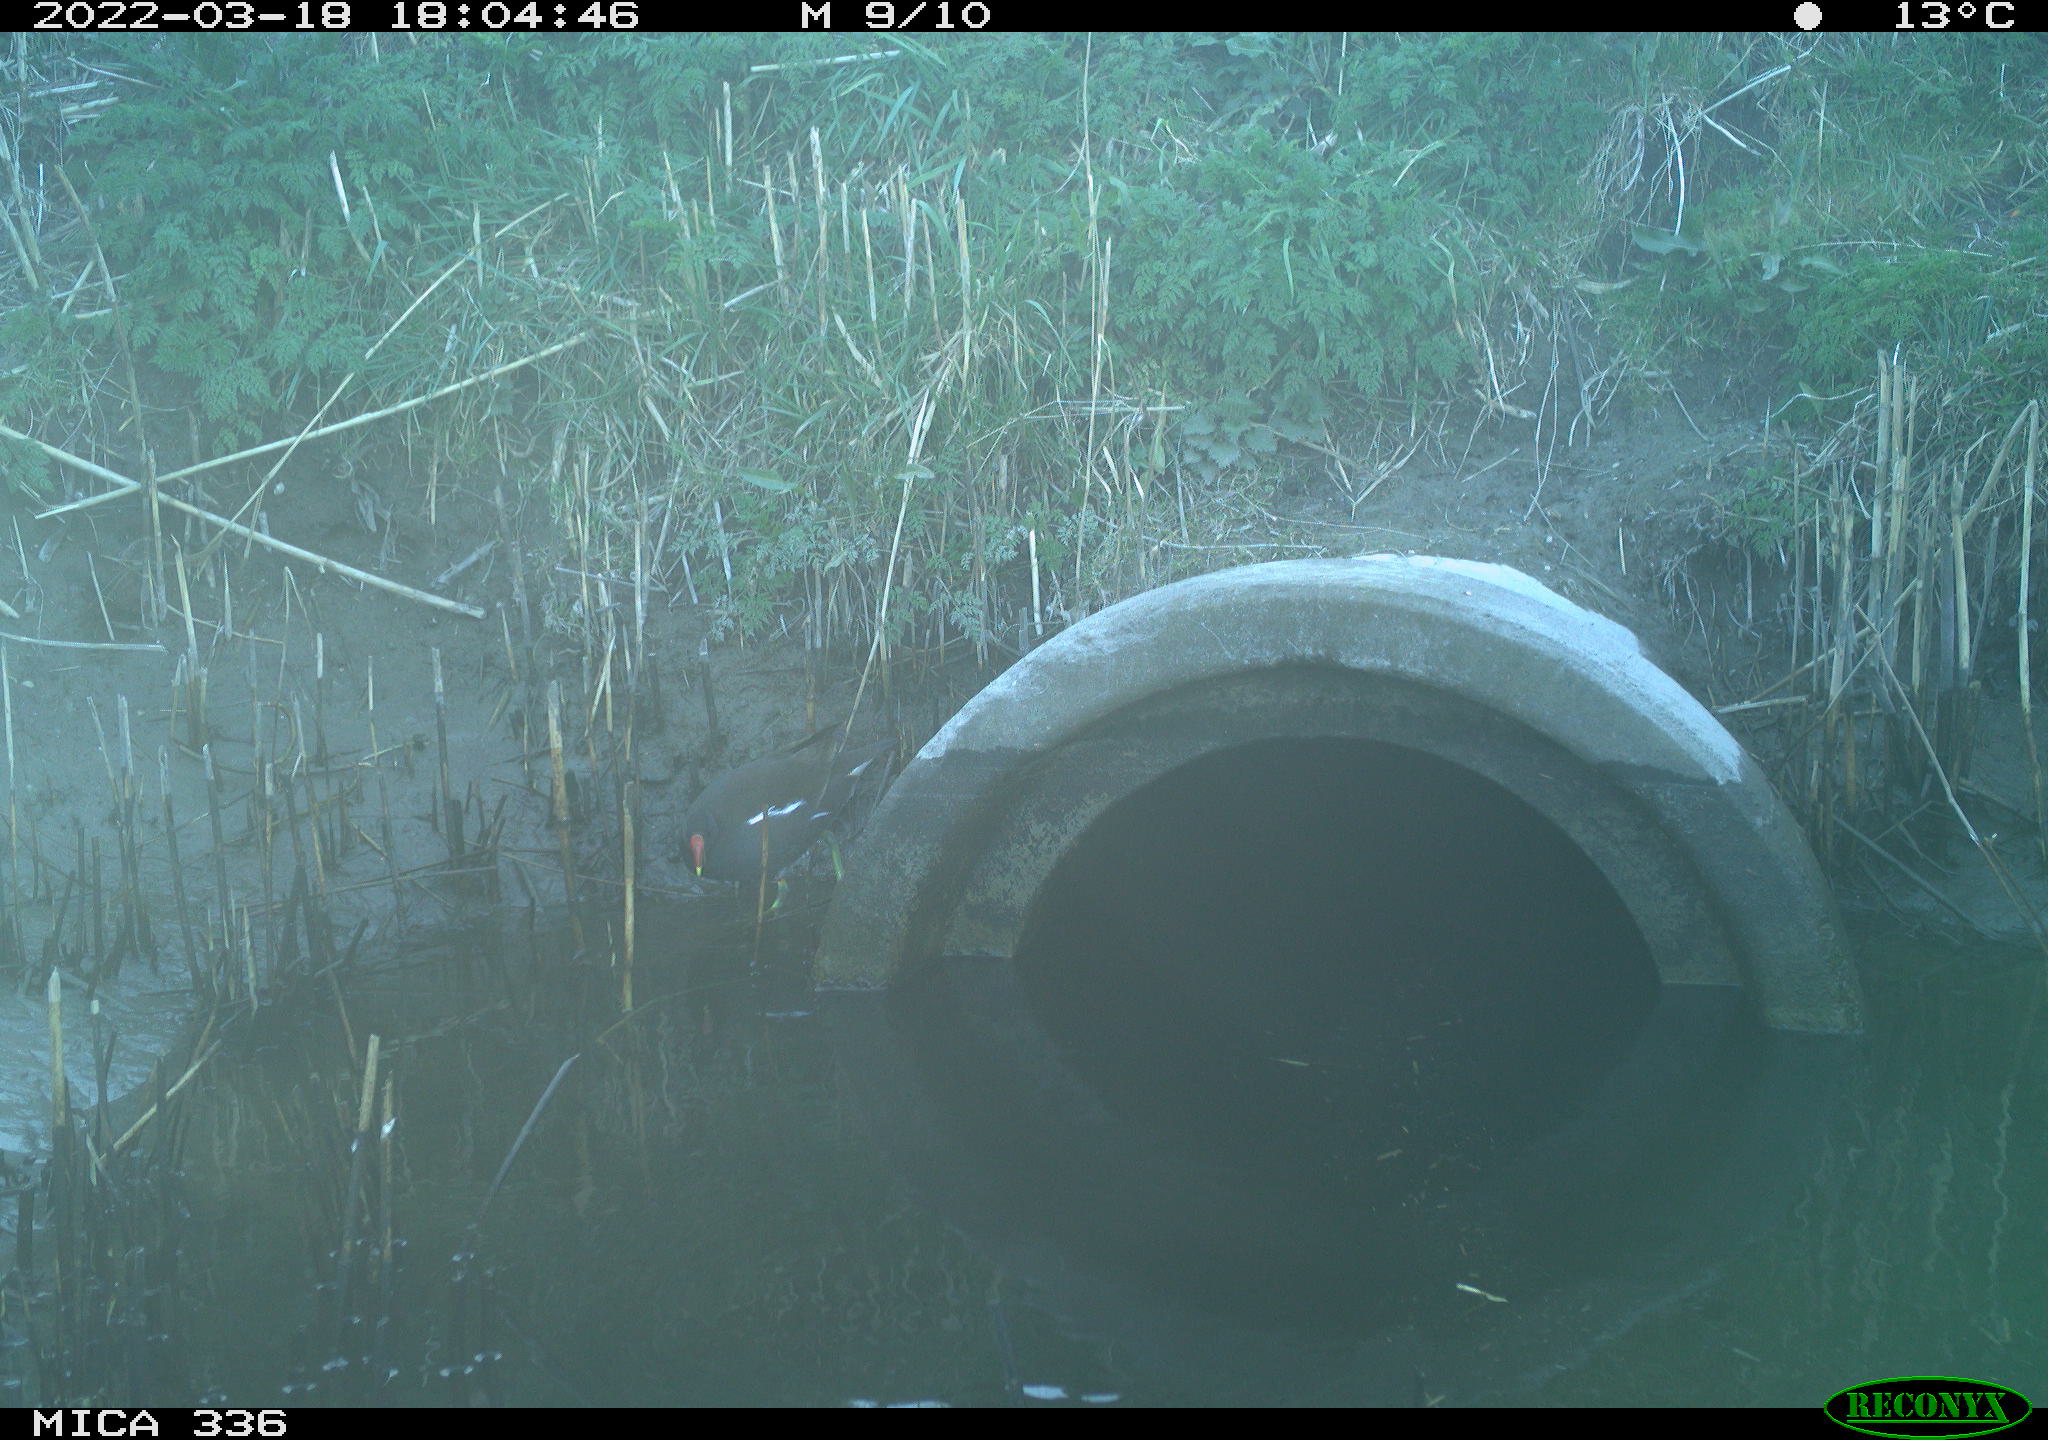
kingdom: Animalia
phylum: Chordata
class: Aves
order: Gruiformes
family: Rallidae
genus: Gallinula
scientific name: Gallinula chloropus
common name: Common moorhen
